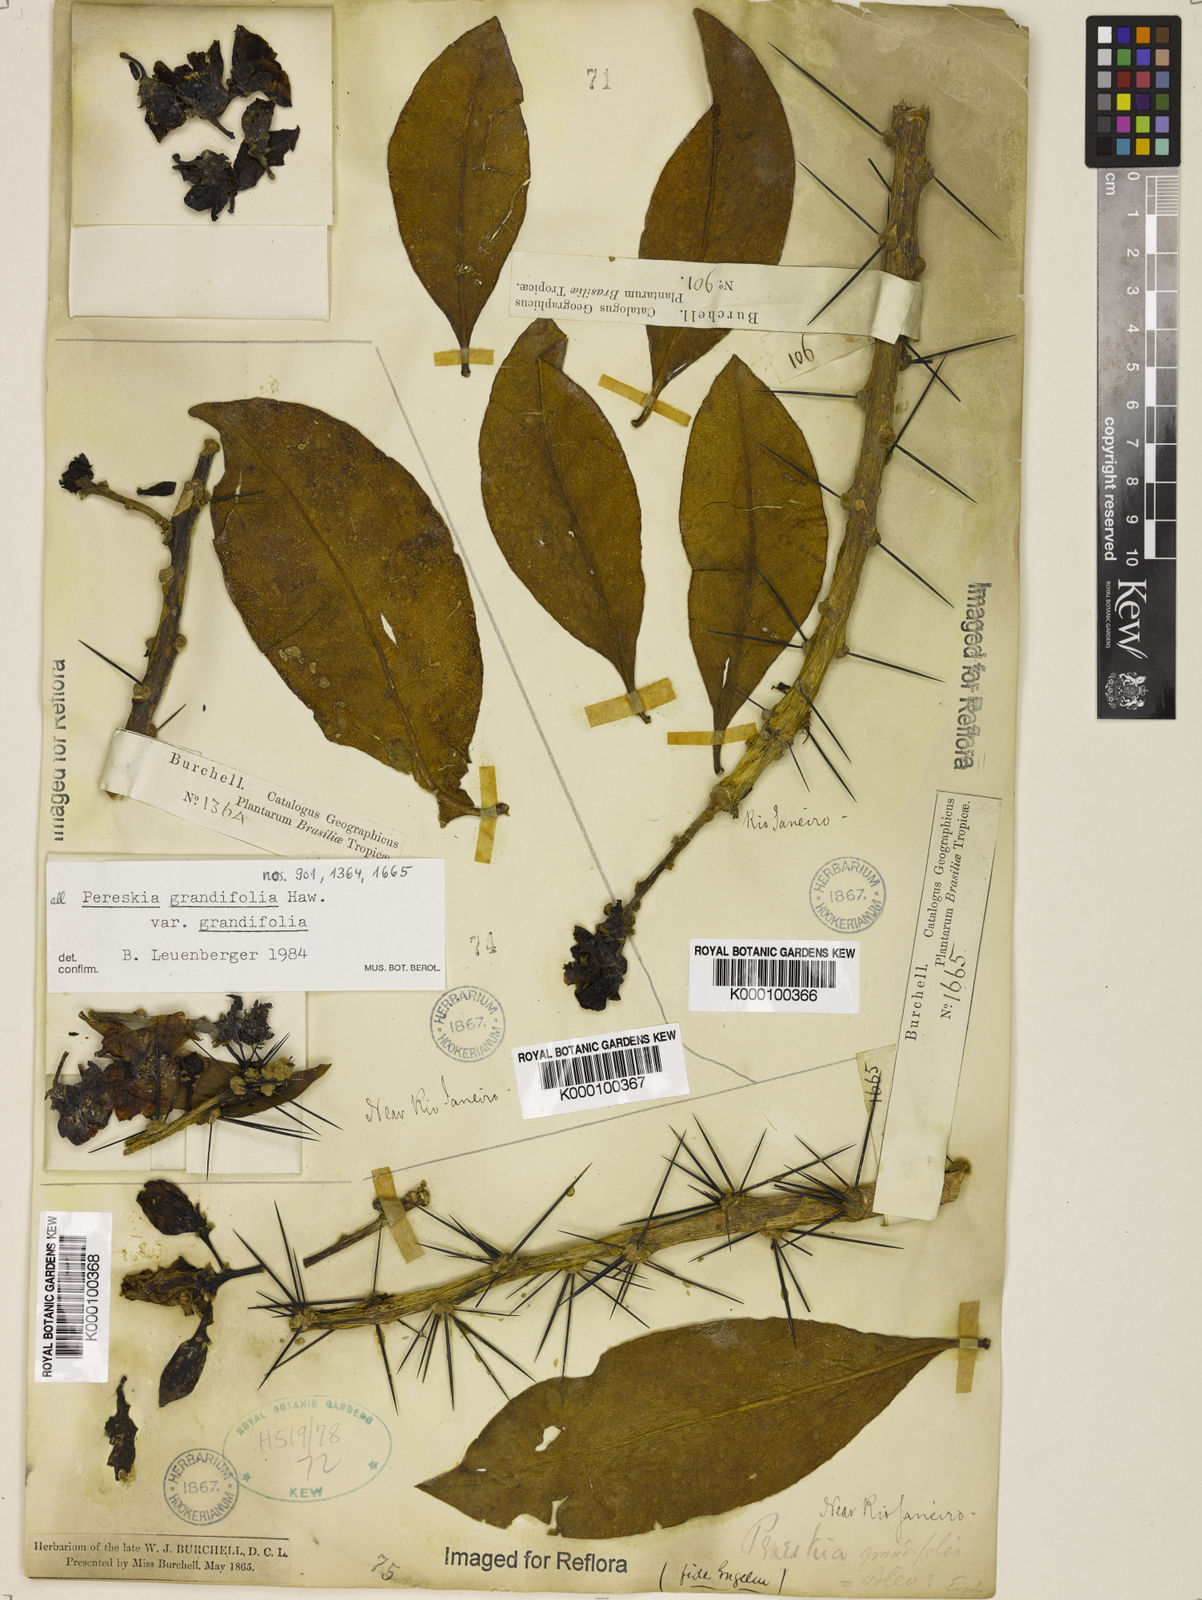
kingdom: Plantae
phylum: Tracheophyta
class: Magnoliopsida
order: Caryophyllales
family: Cactaceae
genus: Pereskia
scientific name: Pereskia grandifolia
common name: Rose cactus
